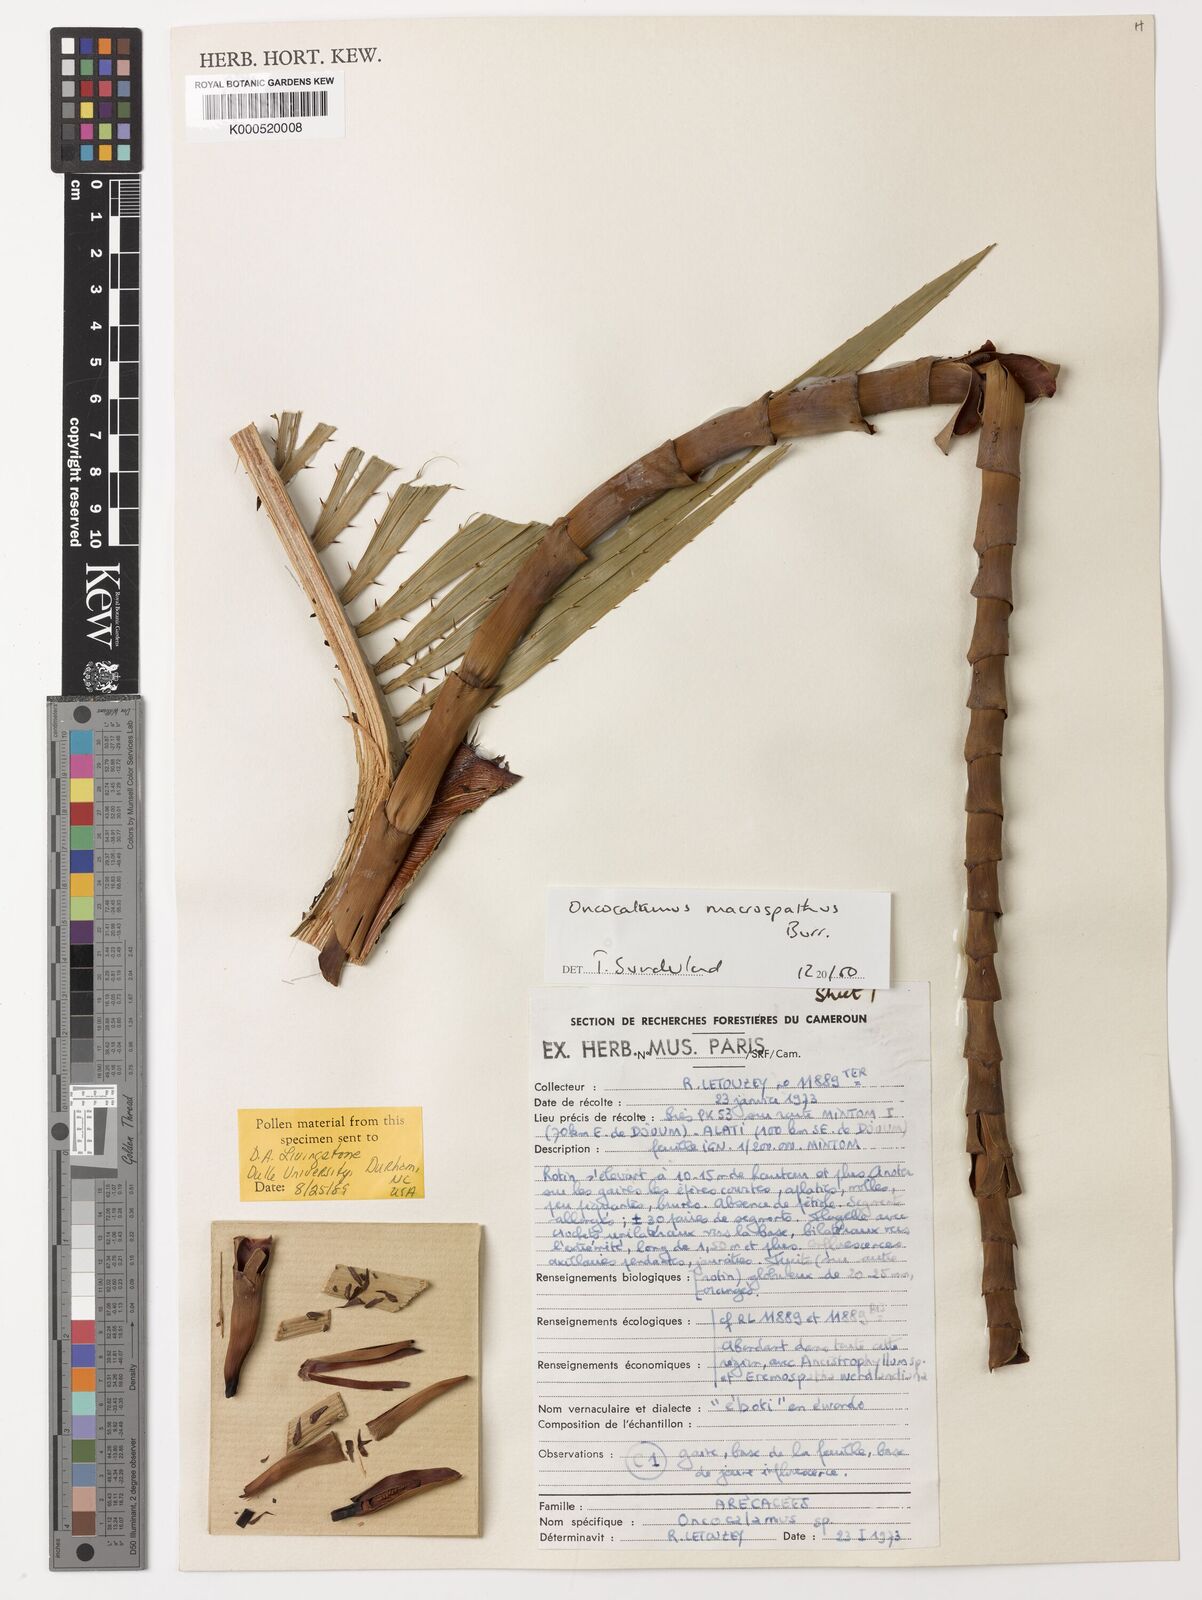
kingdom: Plantae
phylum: Tracheophyta
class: Liliopsida
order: Arecales
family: Arecaceae
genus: Oncocalamus
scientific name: Oncocalamus macrospathus
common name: Rattan
